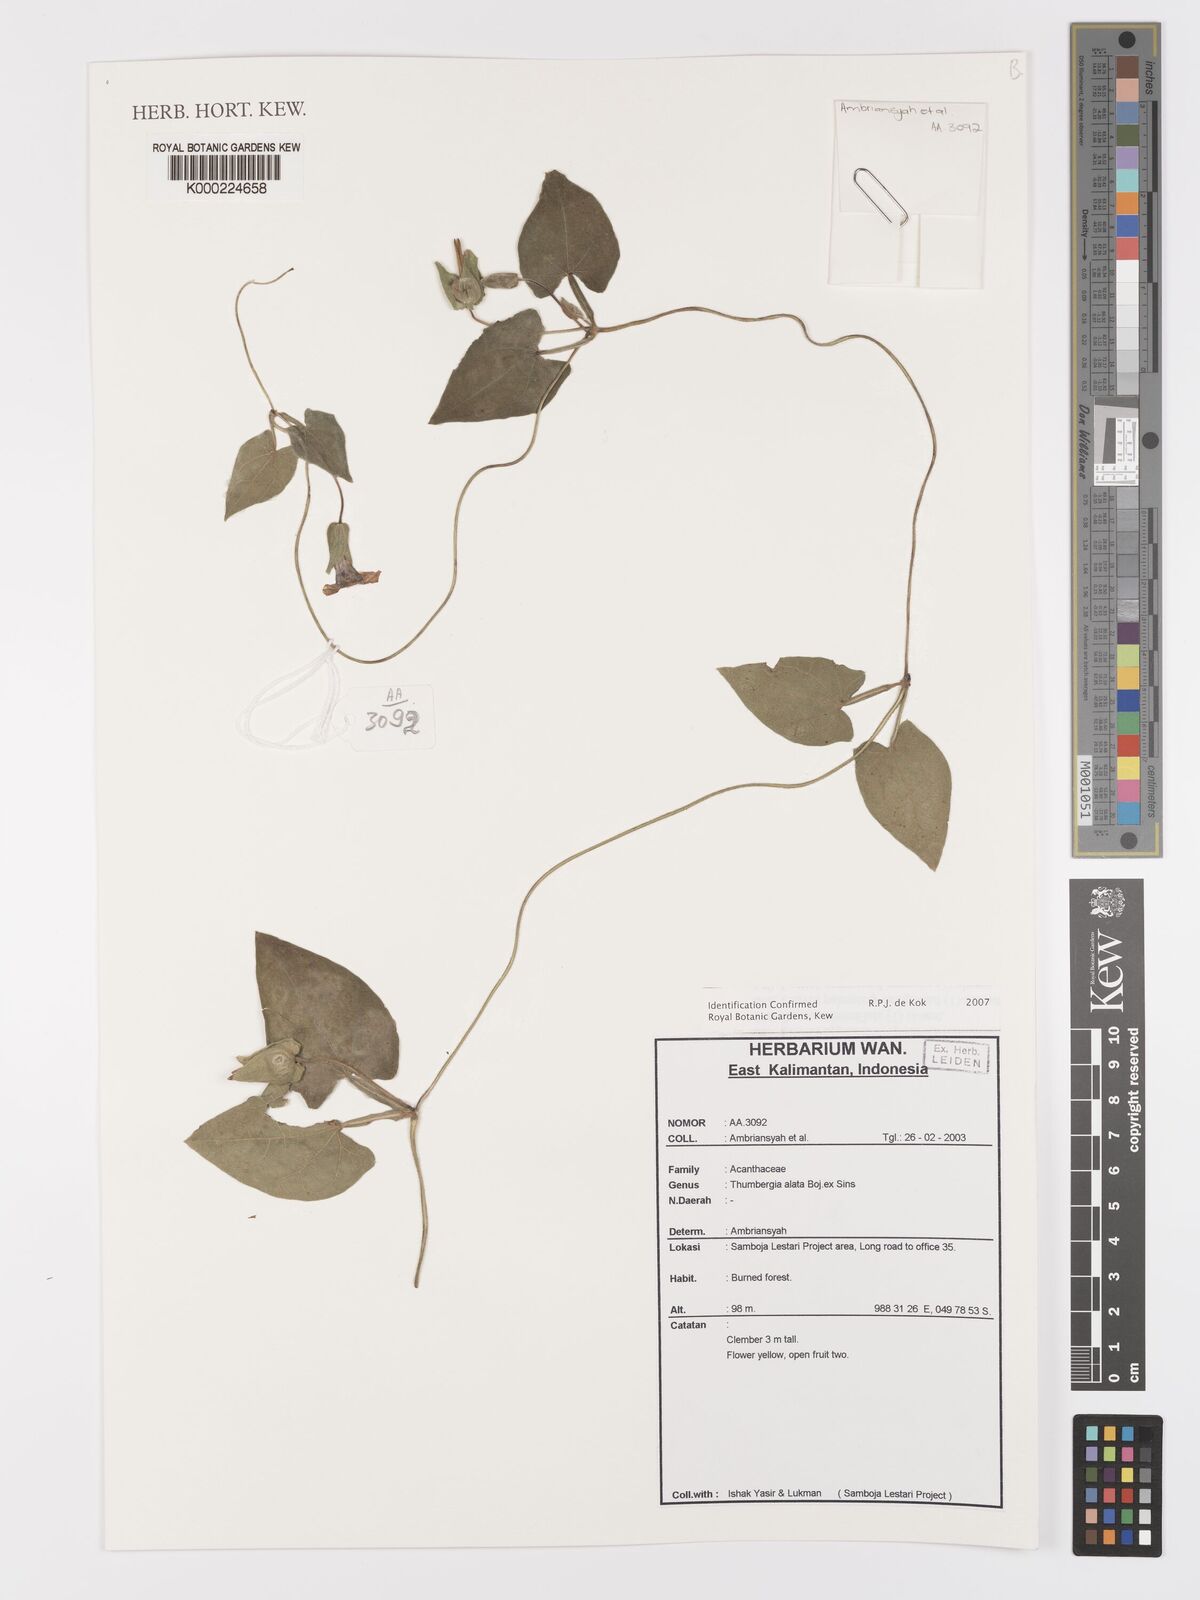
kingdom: Plantae
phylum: Tracheophyta
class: Magnoliopsida
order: Lamiales
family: Acanthaceae
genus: Thunbergia
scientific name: Thunbergia
